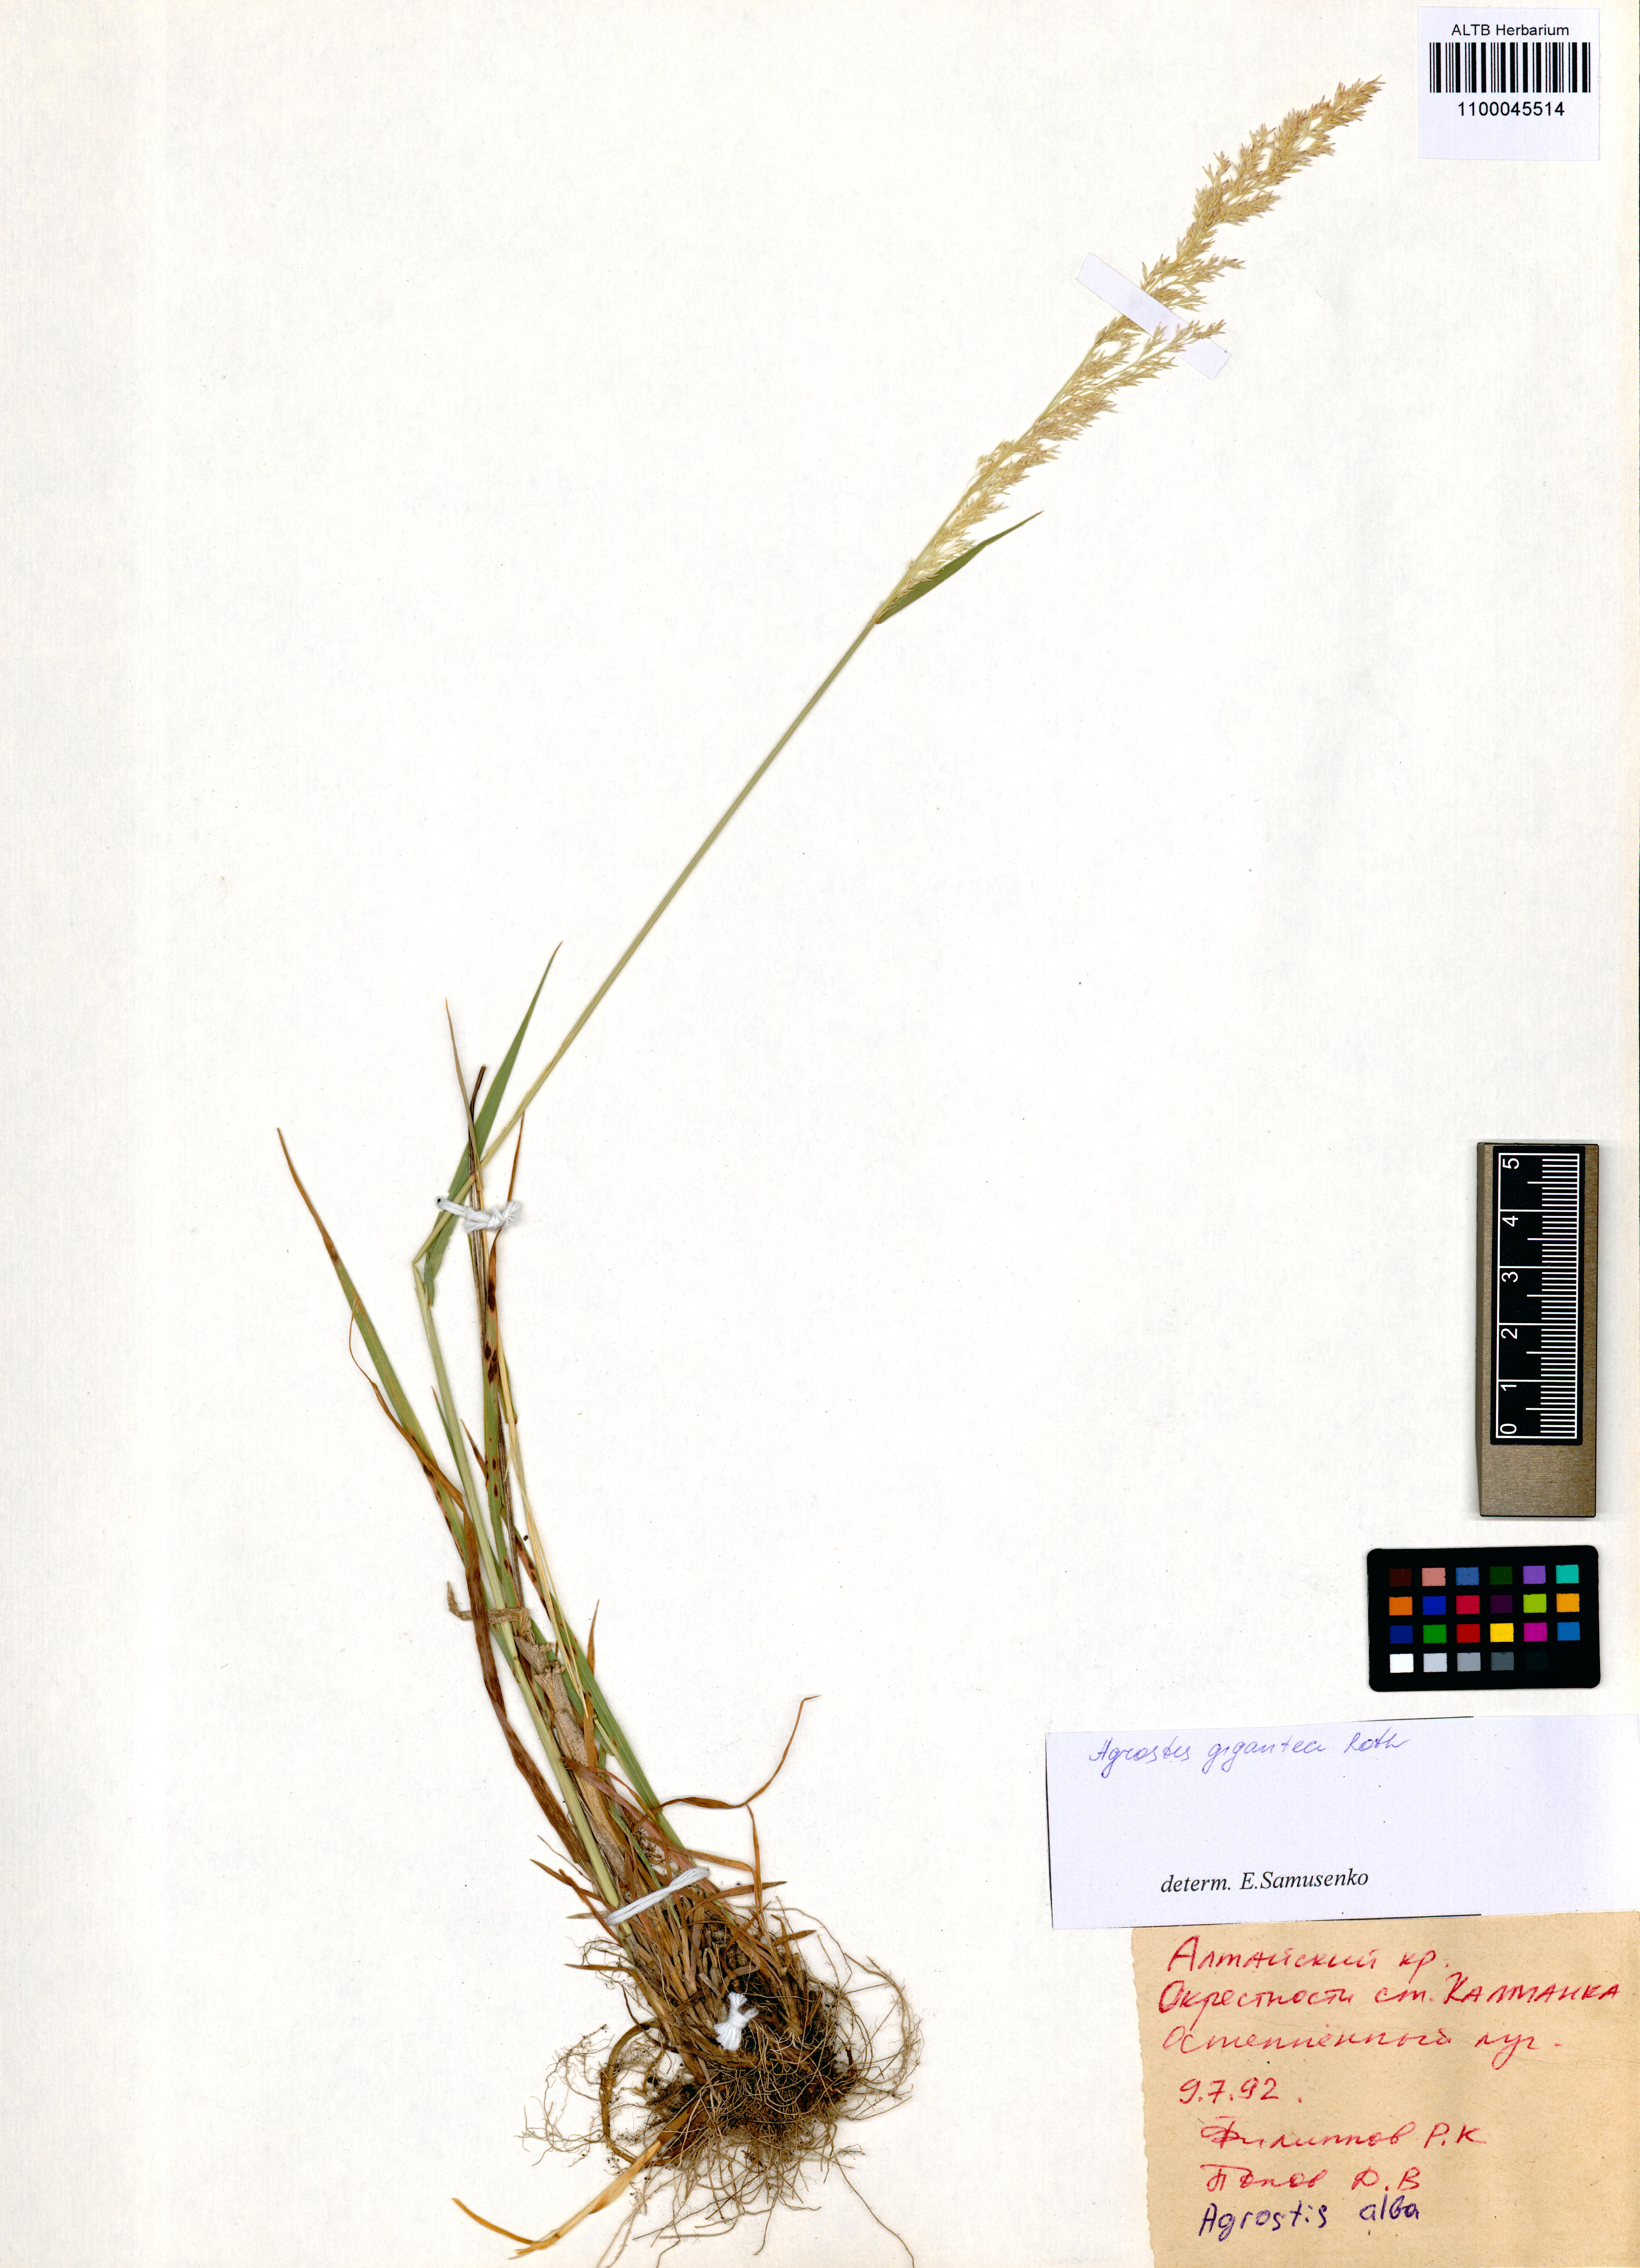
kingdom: Plantae
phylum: Tracheophyta
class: Liliopsida
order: Poales
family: Poaceae
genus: Agrostis
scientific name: Agrostis gigantea
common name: Black bent
